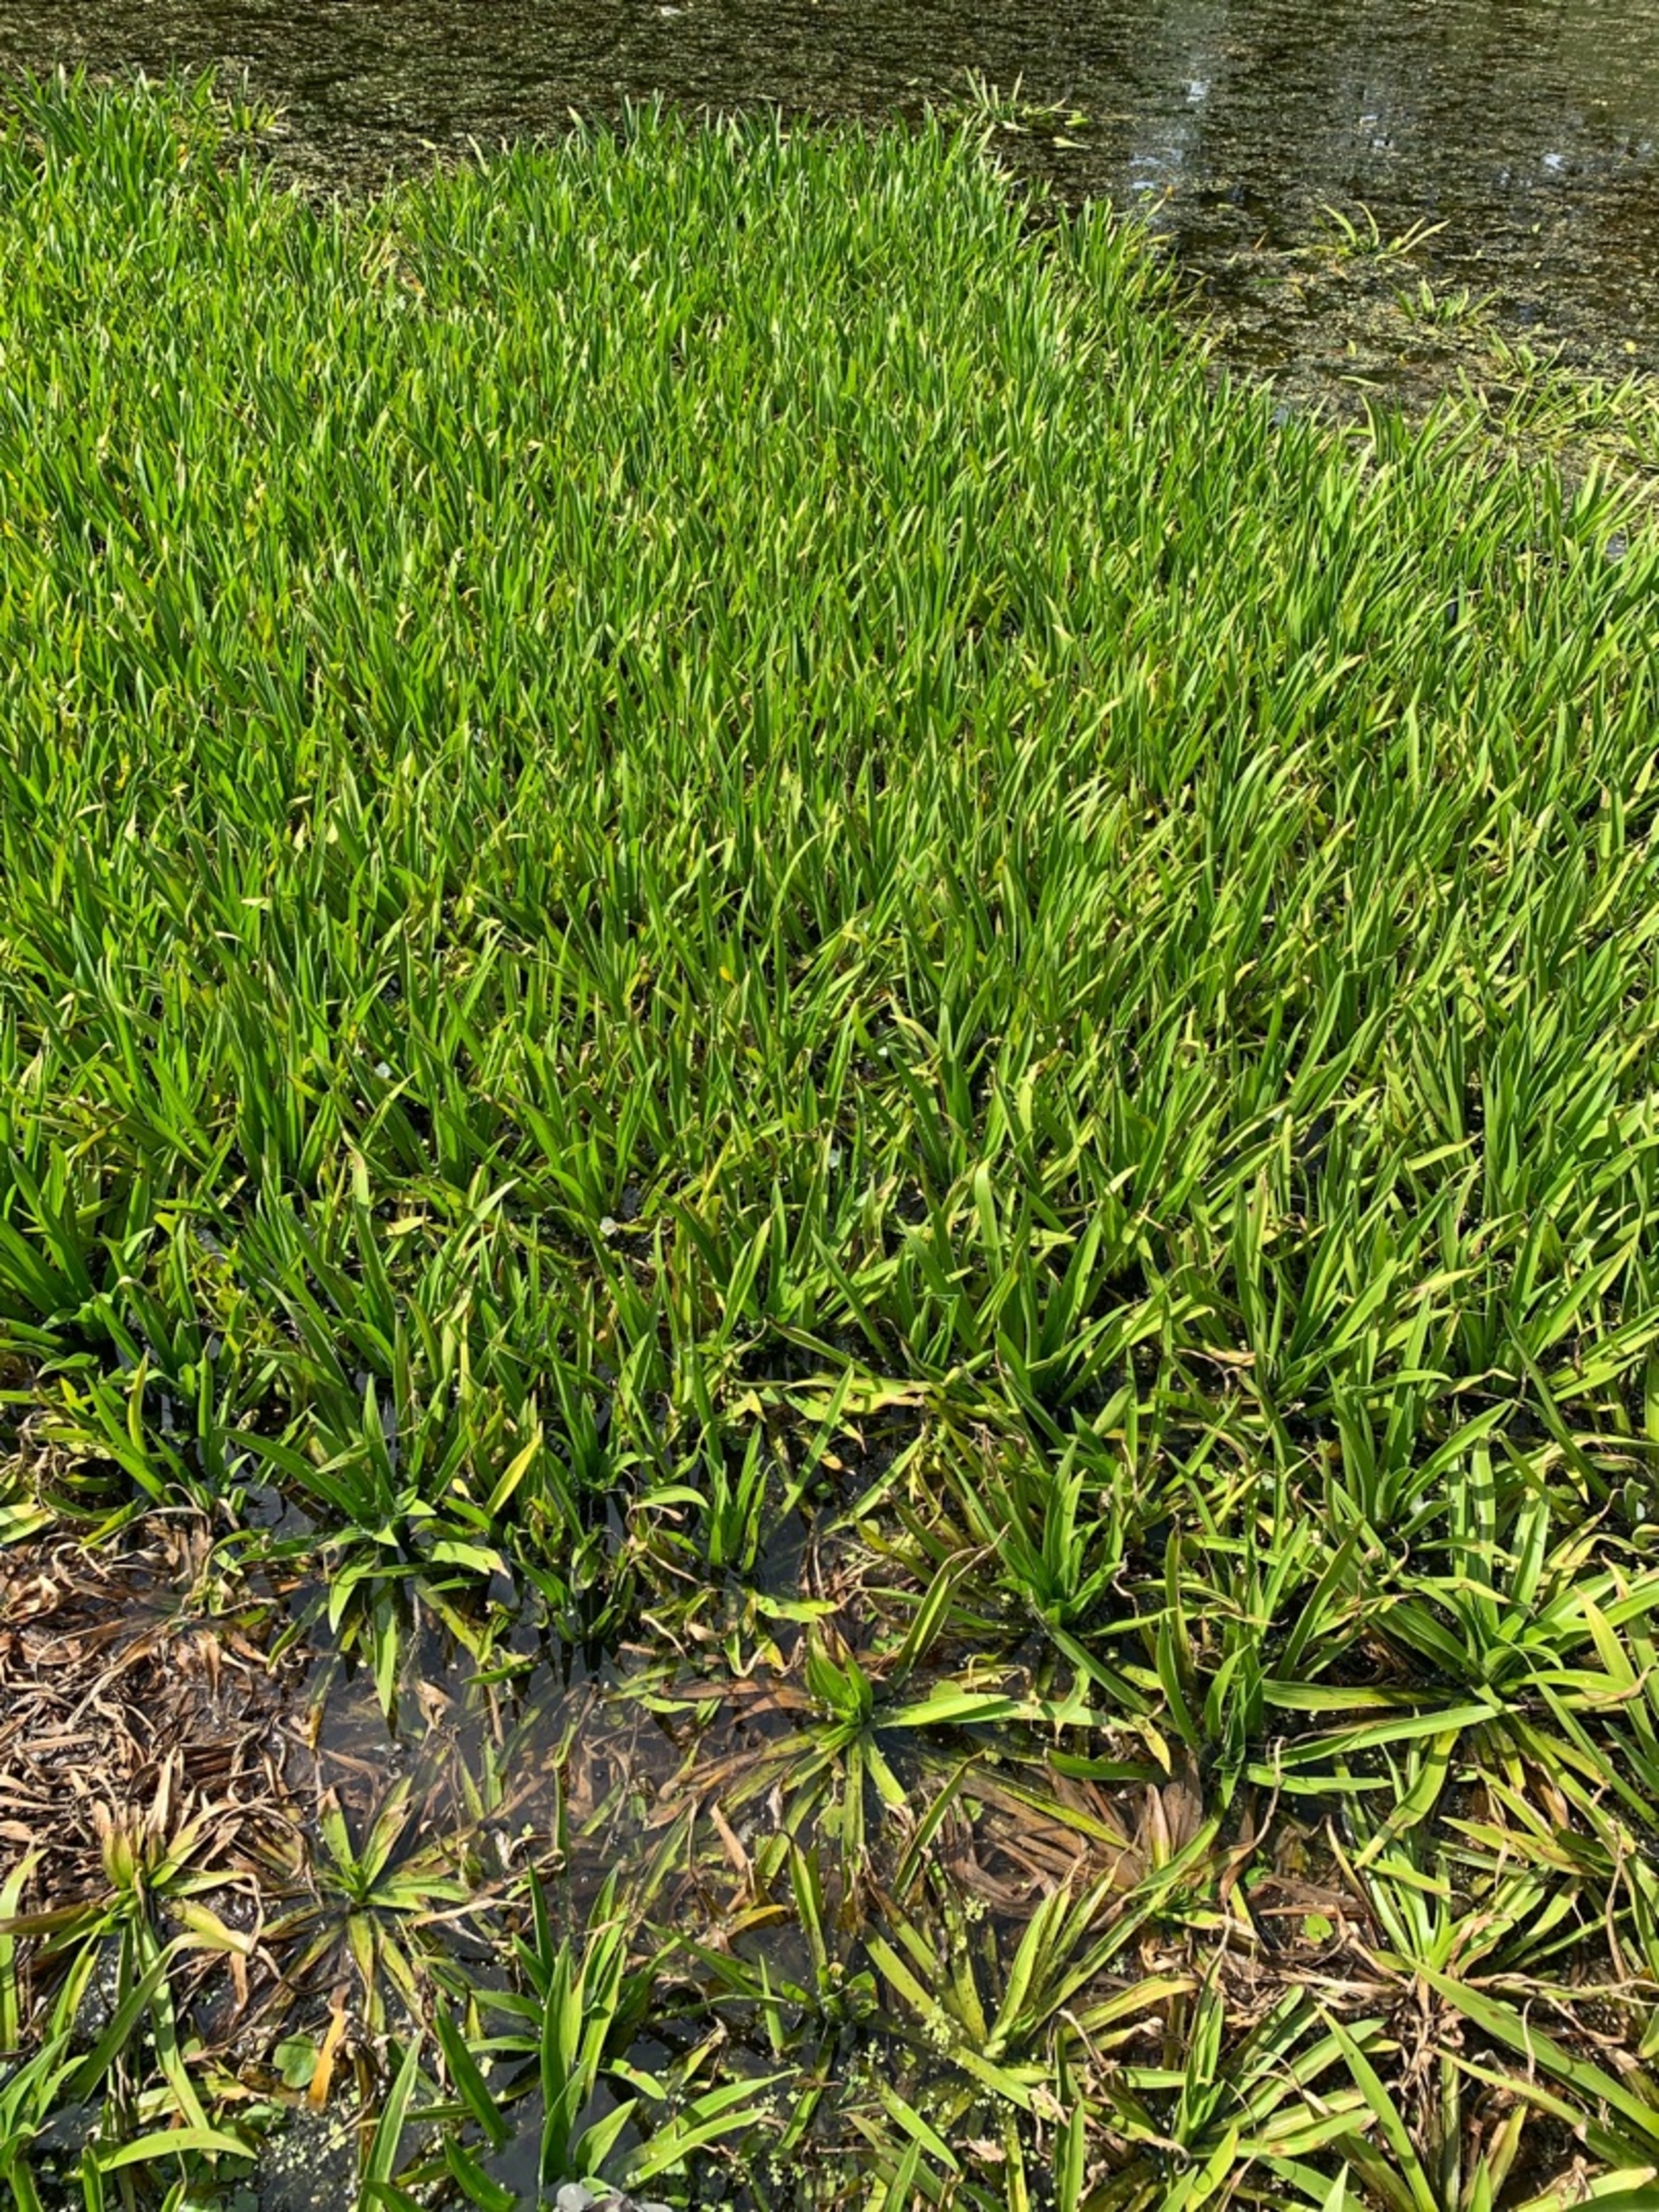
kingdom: Plantae
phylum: Tracheophyta
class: Liliopsida
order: Alismatales
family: Hydrocharitaceae
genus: Stratiotes
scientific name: Stratiotes aloides
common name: Krebseklo
